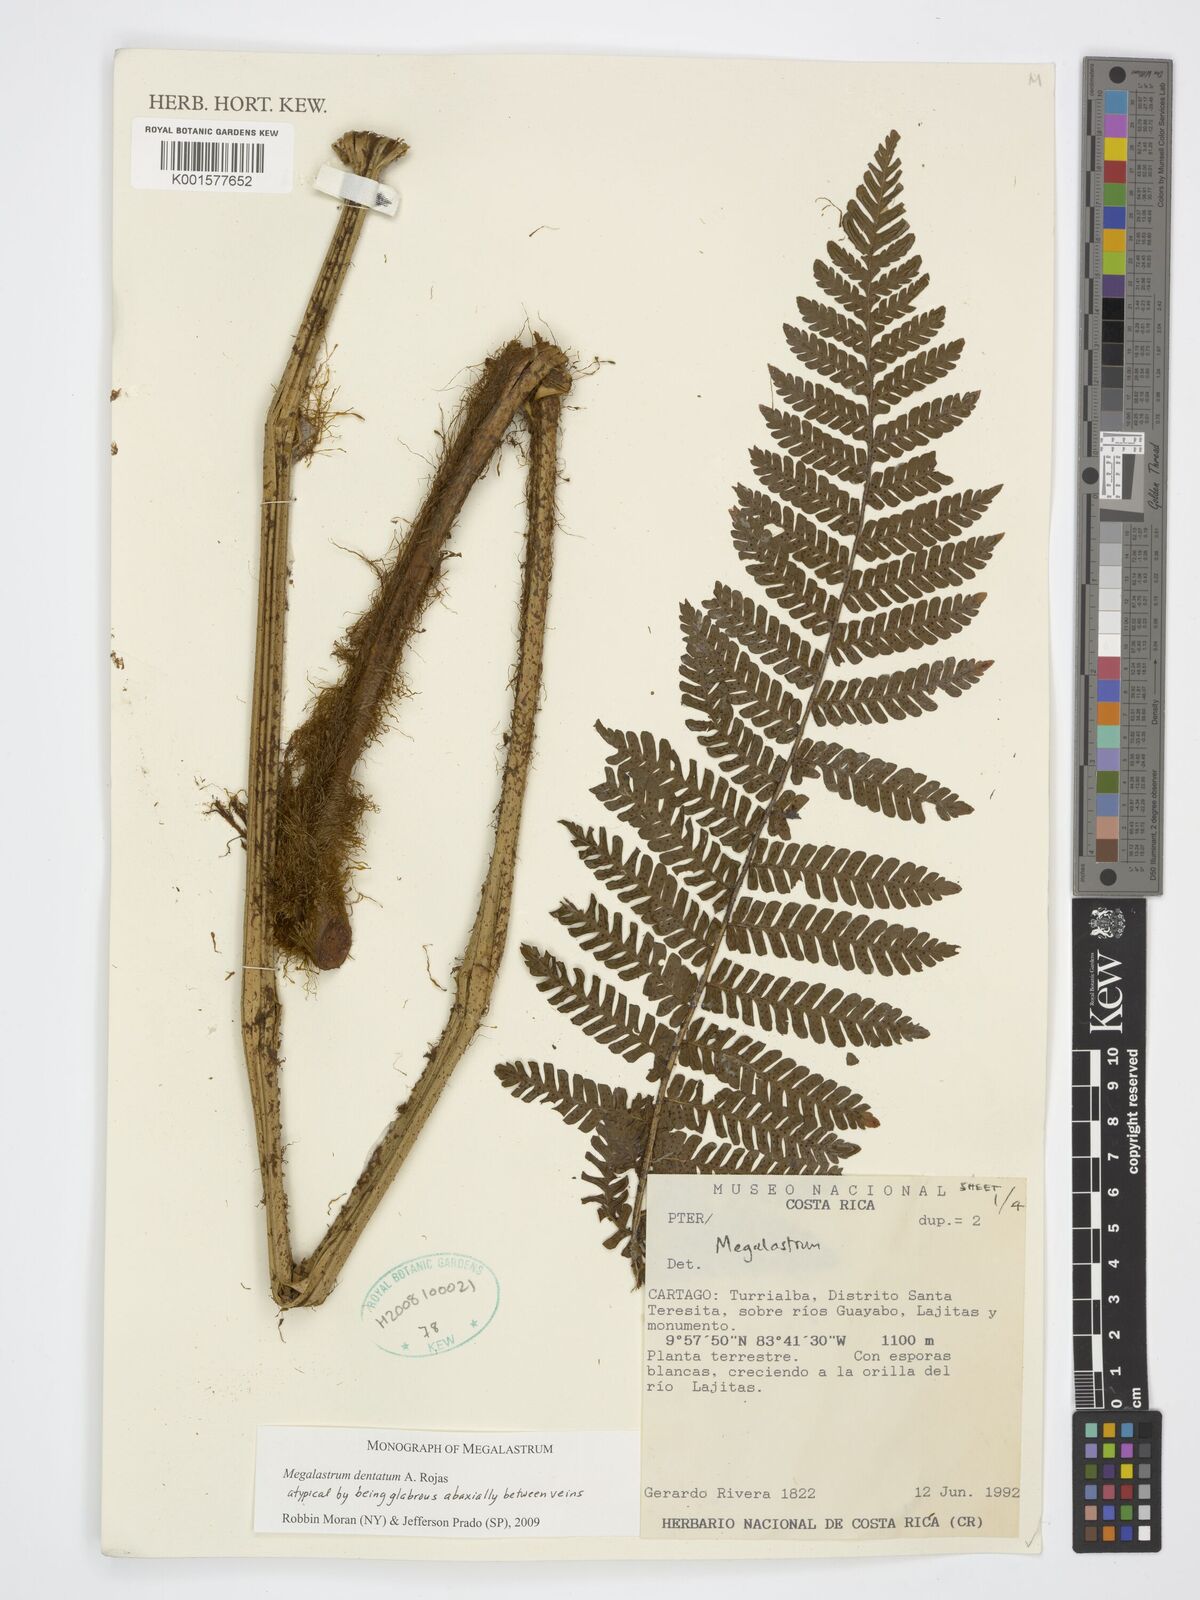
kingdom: Plantae
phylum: Tracheophyta
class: Polypodiopsida
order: Polypodiales
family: Dryopteridaceae
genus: Megalastrum
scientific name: Megalastrum dentatum
